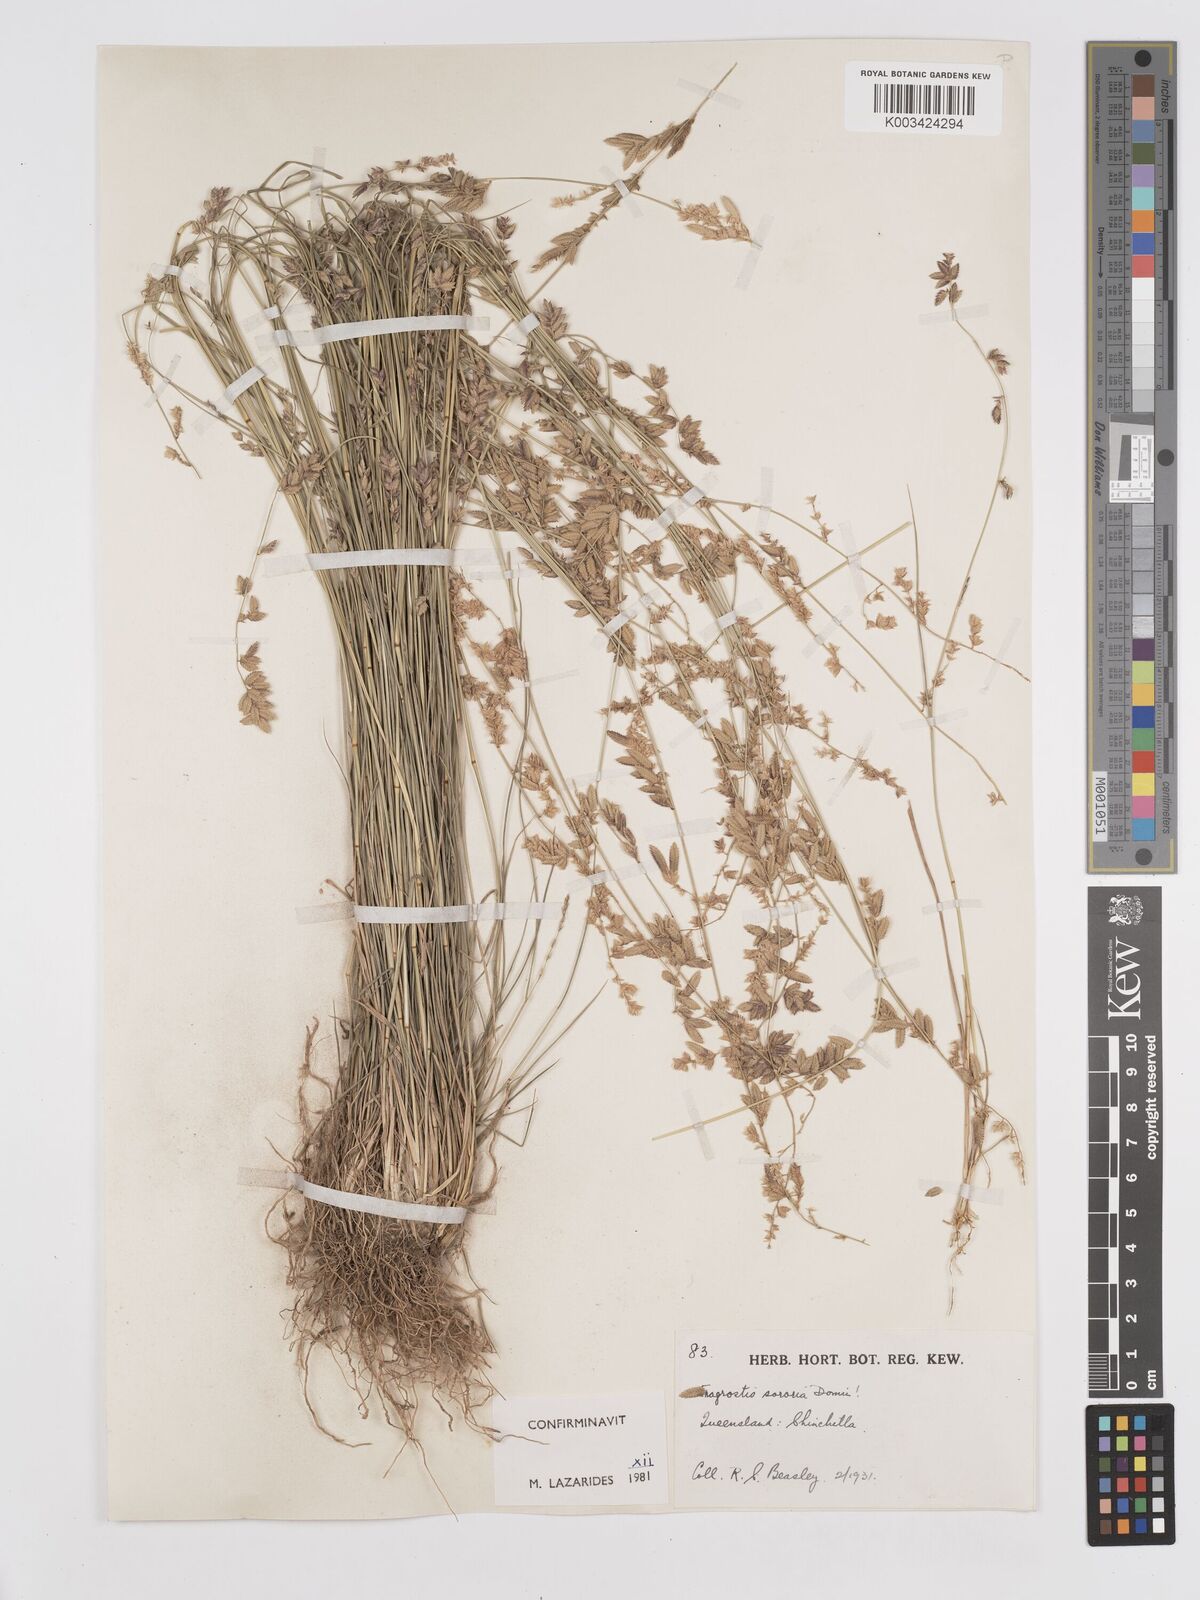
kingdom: Plantae
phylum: Tracheophyta
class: Liliopsida
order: Poales
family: Poaceae
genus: Eragrostis
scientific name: Eragrostis sororia
